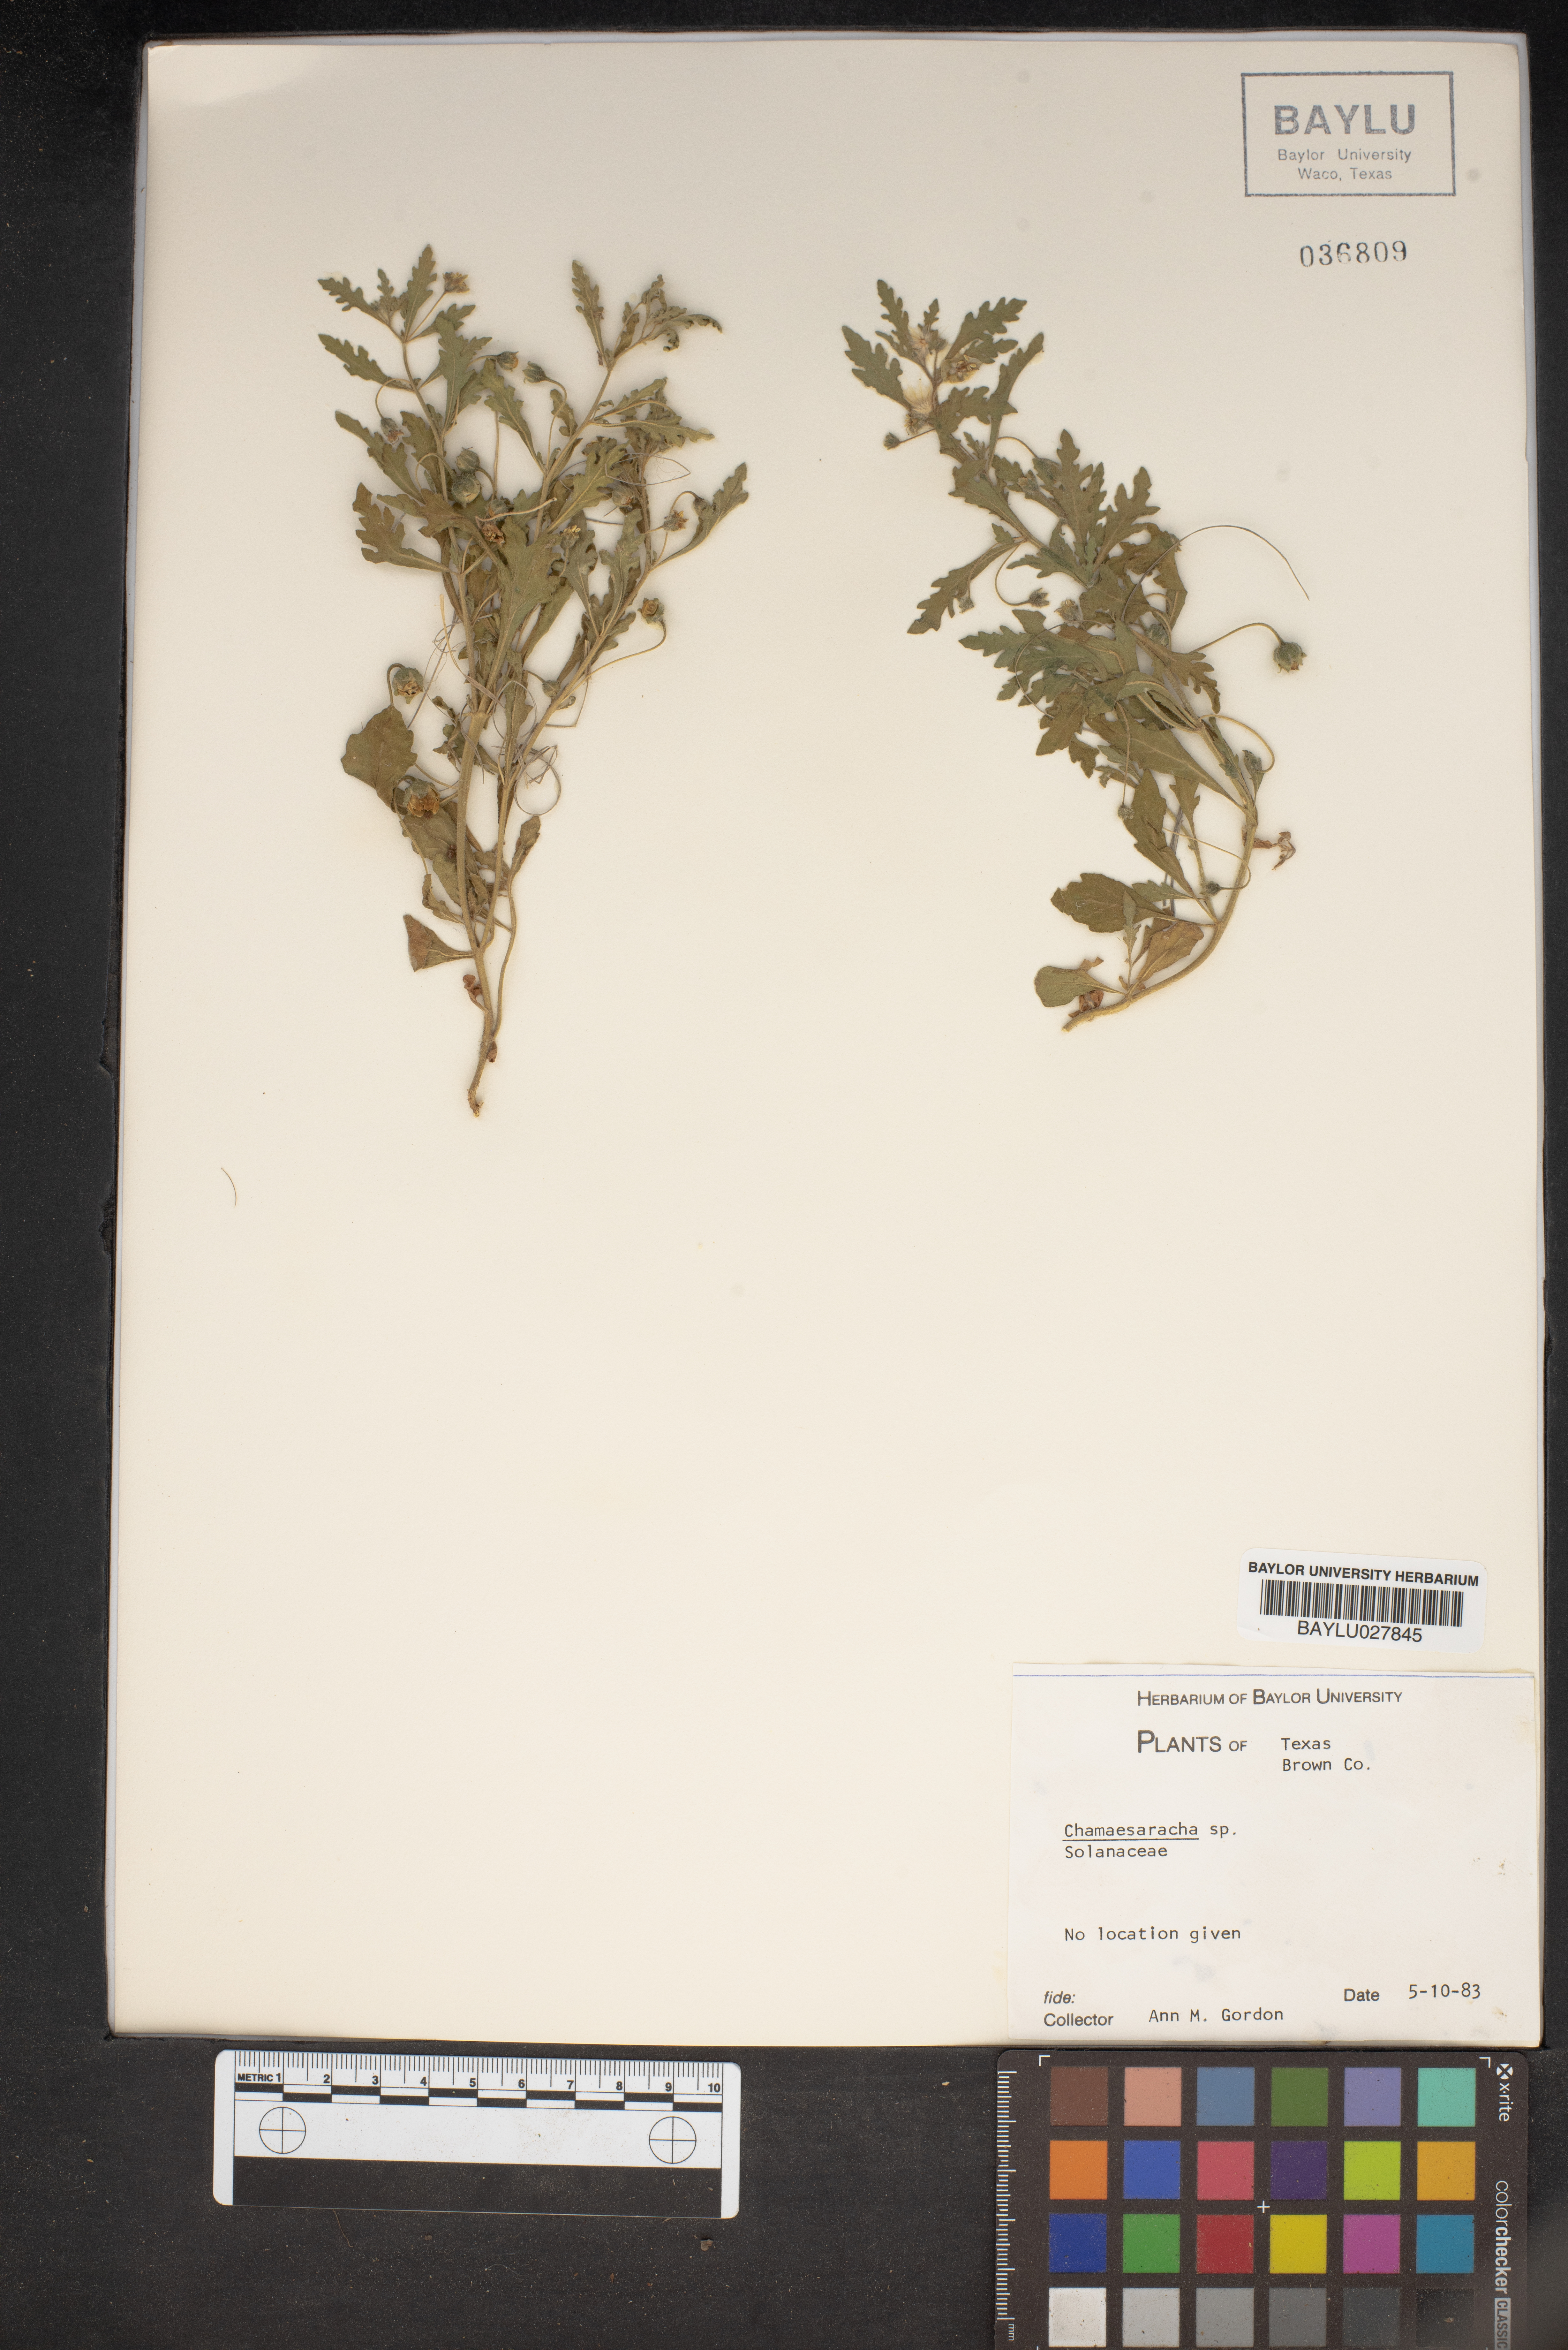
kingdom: Plantae
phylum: Tracheophyta
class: Magnoliopsida
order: Solanales
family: Solanaceae
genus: Chamaesaracha
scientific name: Chamaesaracha
